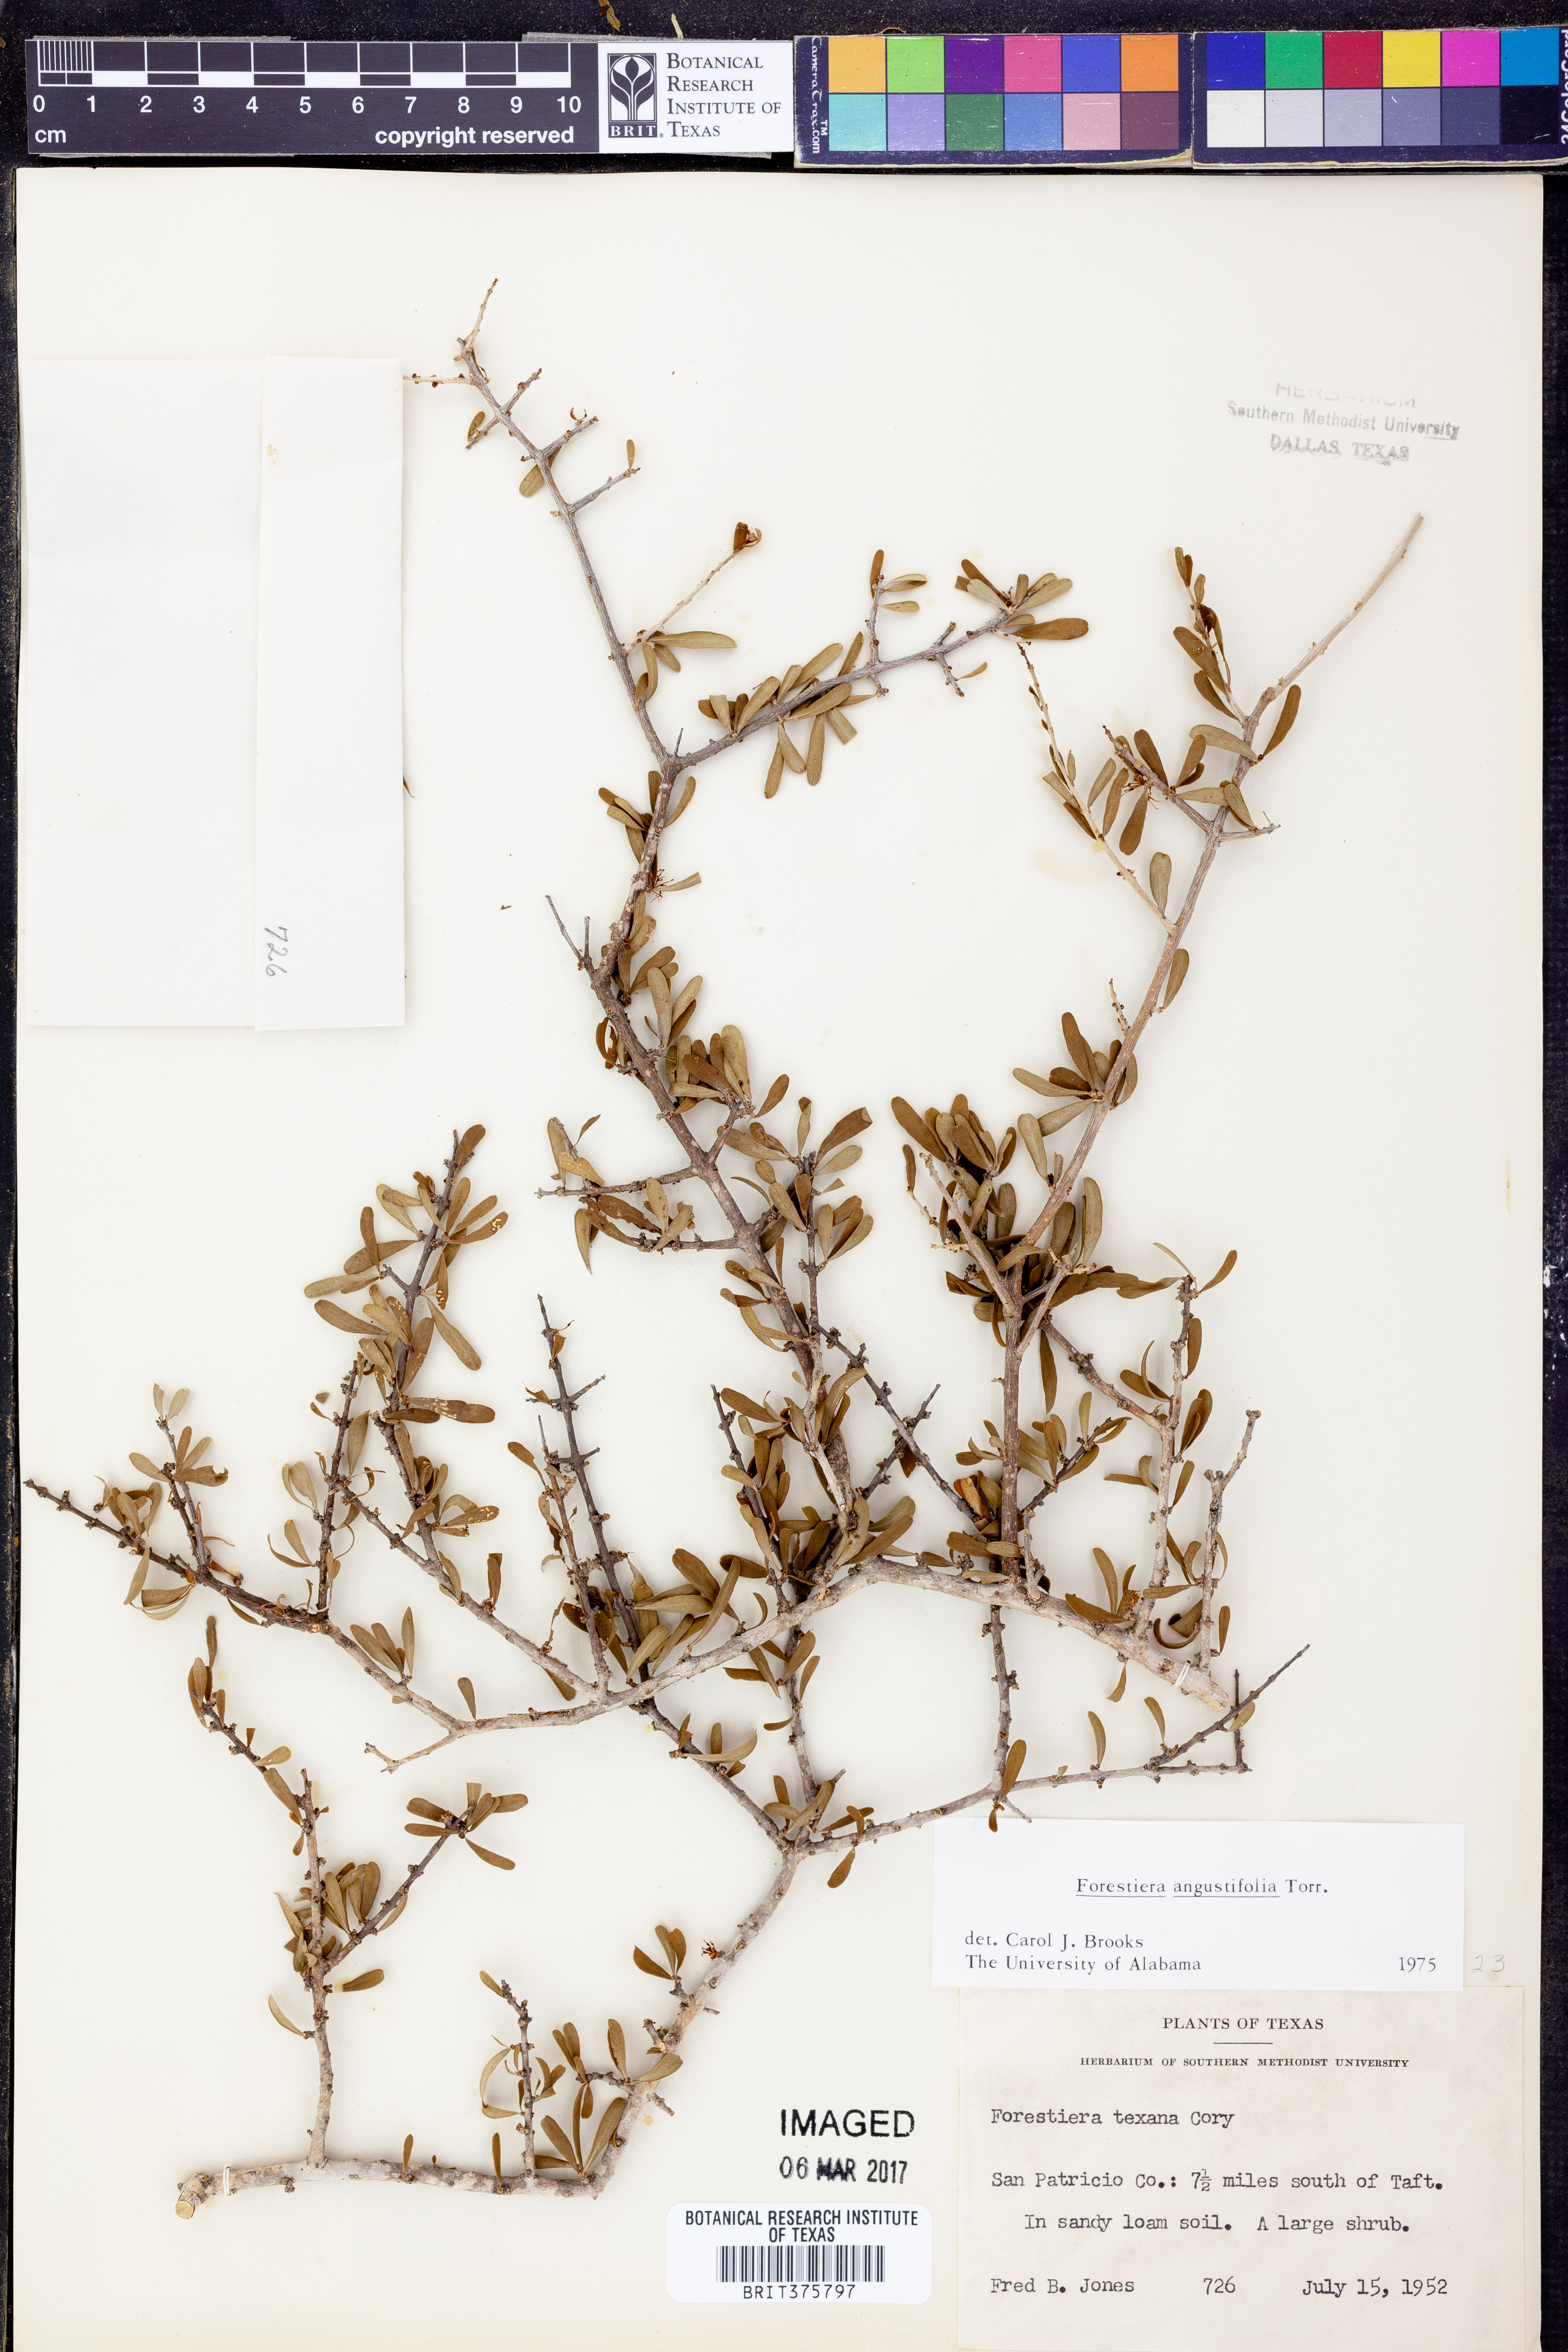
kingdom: Plantae
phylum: Tracheophyta
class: Magnoliopsida
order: Lamiales
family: Oleaceae
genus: Forestiera
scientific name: Forestiera angustifolia
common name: Elbowbush
